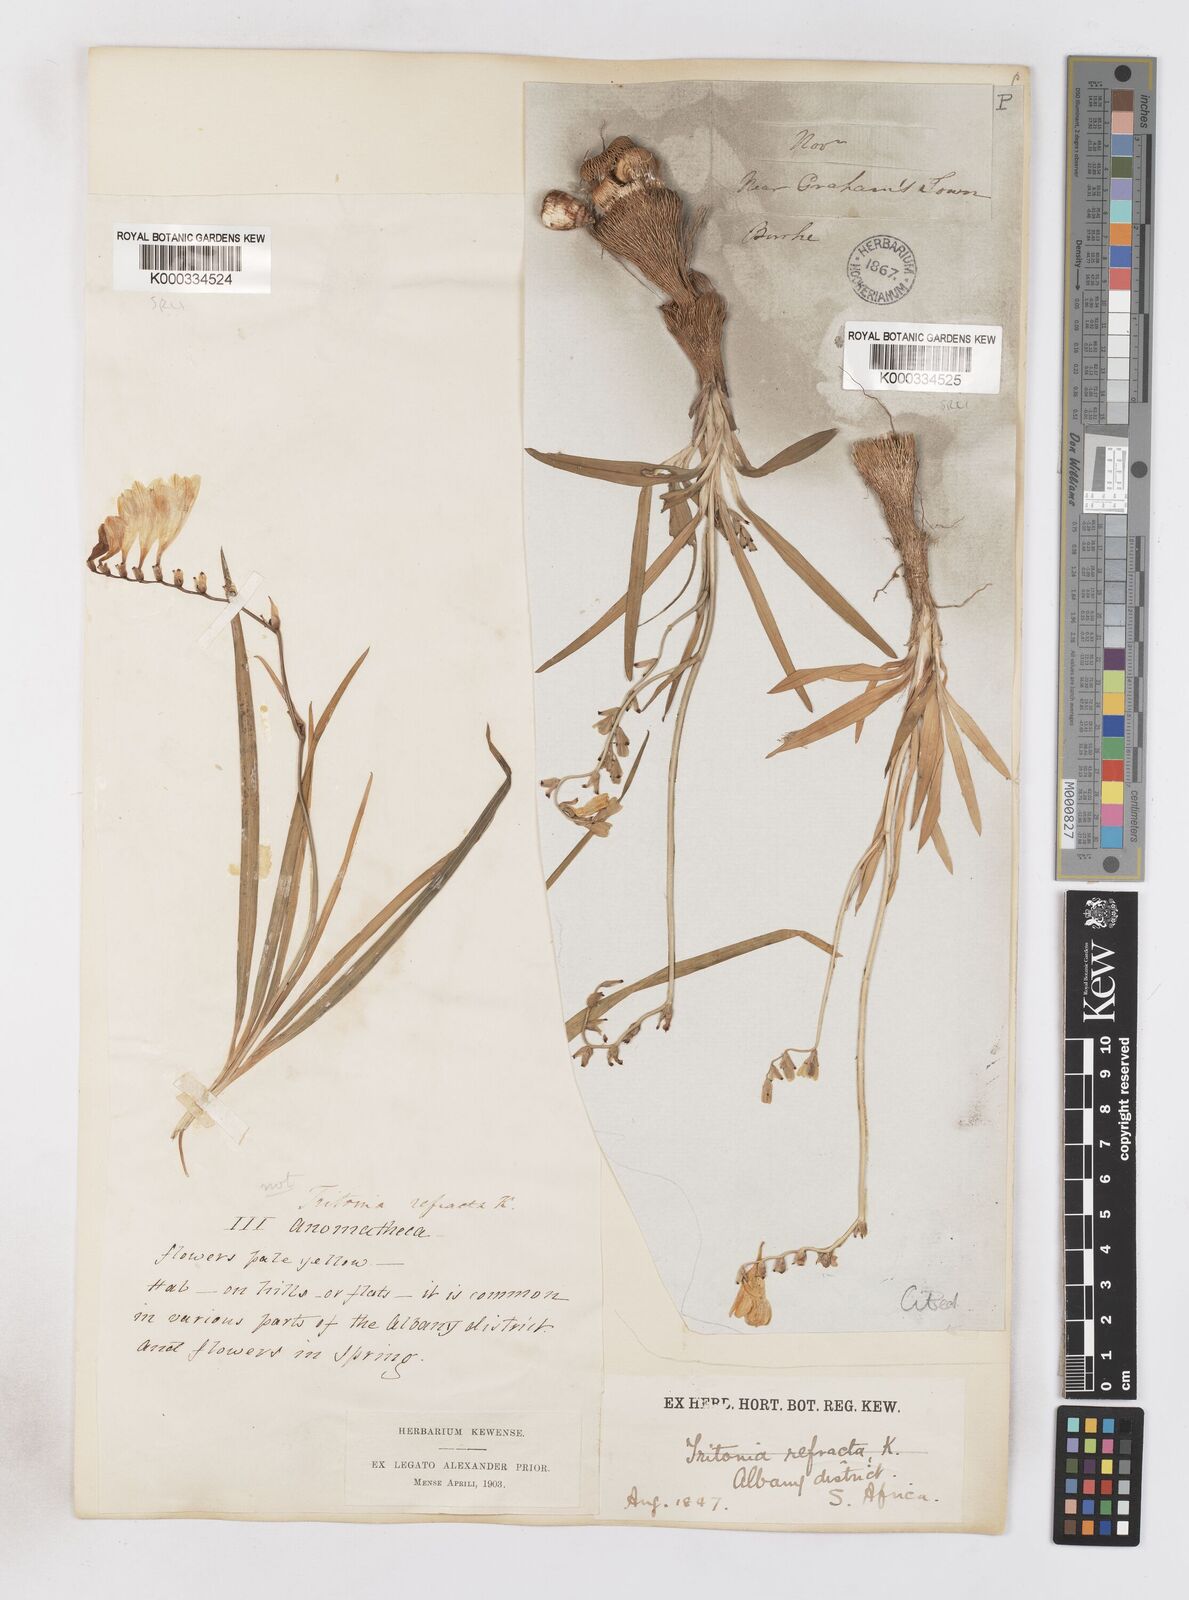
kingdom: Plantae
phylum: Tracheophyta
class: Liliopsida
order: Asparagales
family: Iridaceae
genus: Freesia
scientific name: Freesia corymbosa
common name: Common freesia
